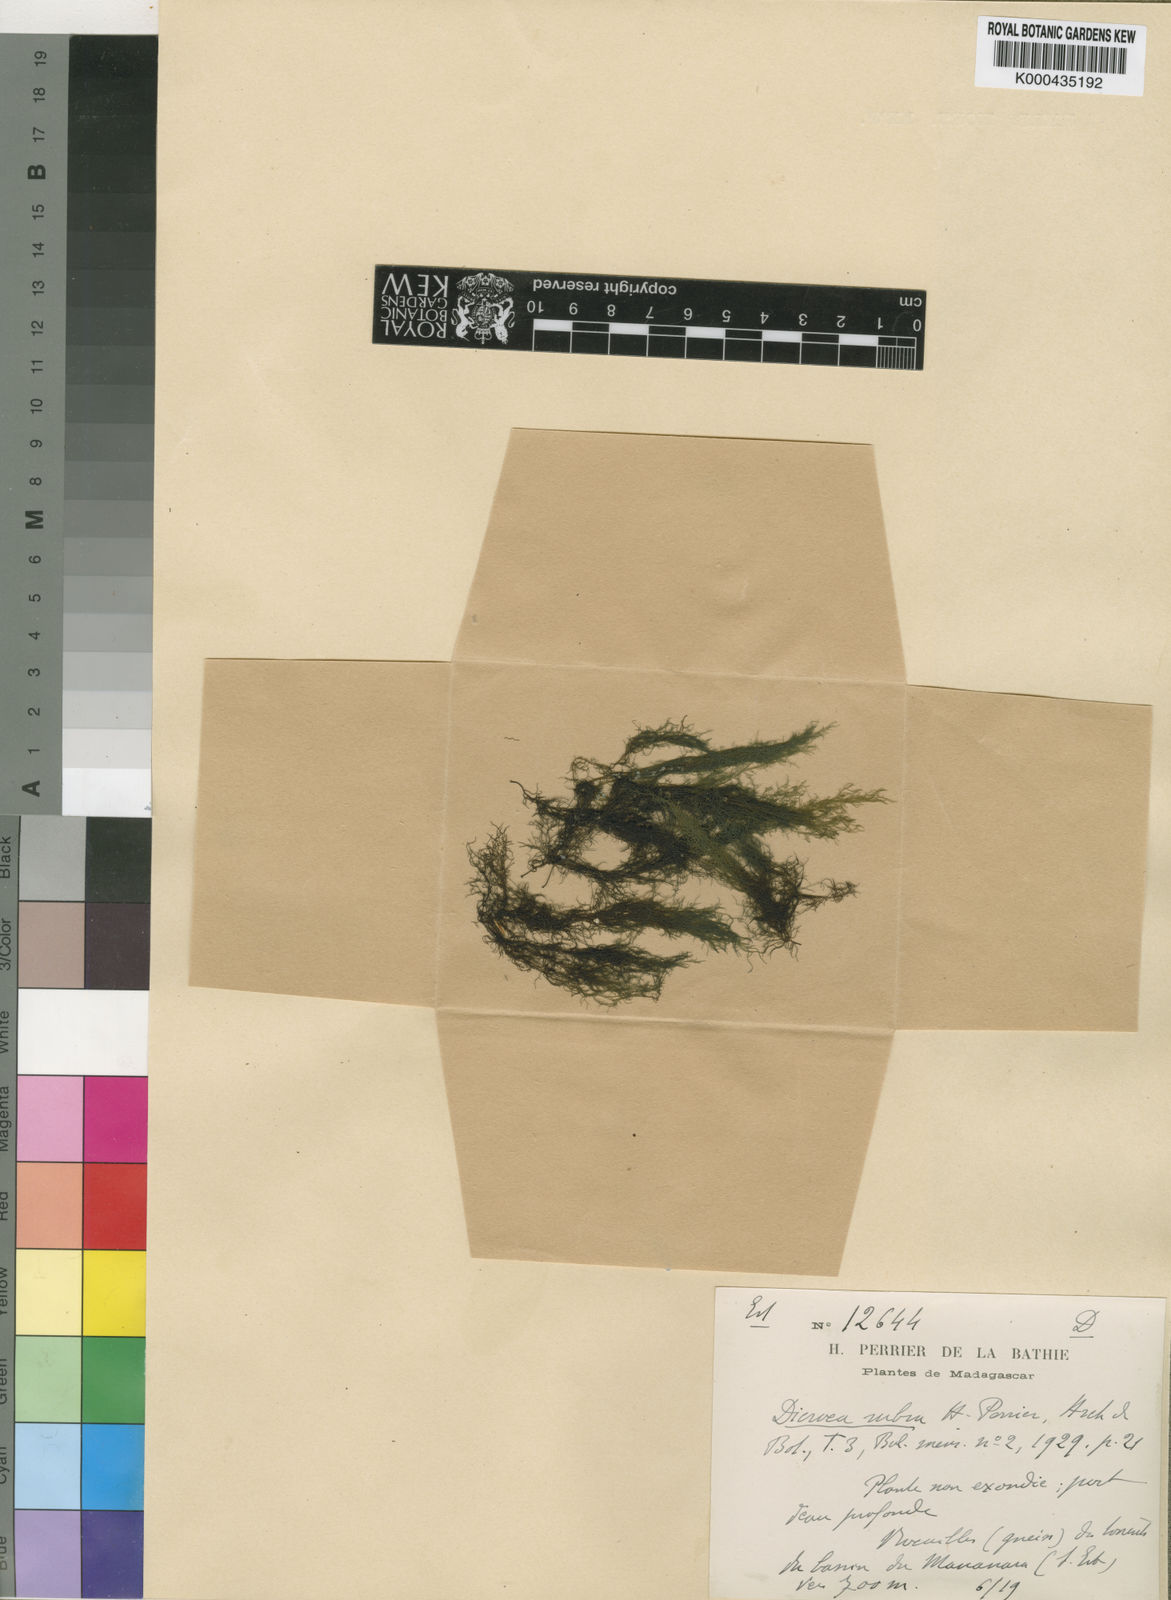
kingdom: Plantae
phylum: Tracheophyta
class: Magnoliopsida
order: Malpighiales
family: Podostemaceae
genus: Sphaerothylax
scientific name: Sphaerothylax abyssinica
